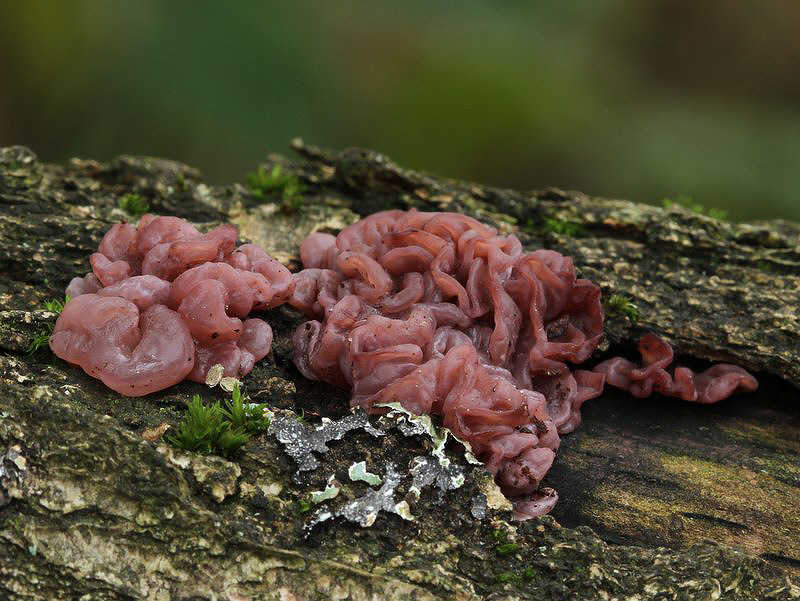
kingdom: Fungi
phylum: Ascomycota
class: Leotiomycetes
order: Helotiales
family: Gelatinodiscaceae
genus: Ascocoryne
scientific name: Ascocoryne sarcoides
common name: rødlilla sejskive
